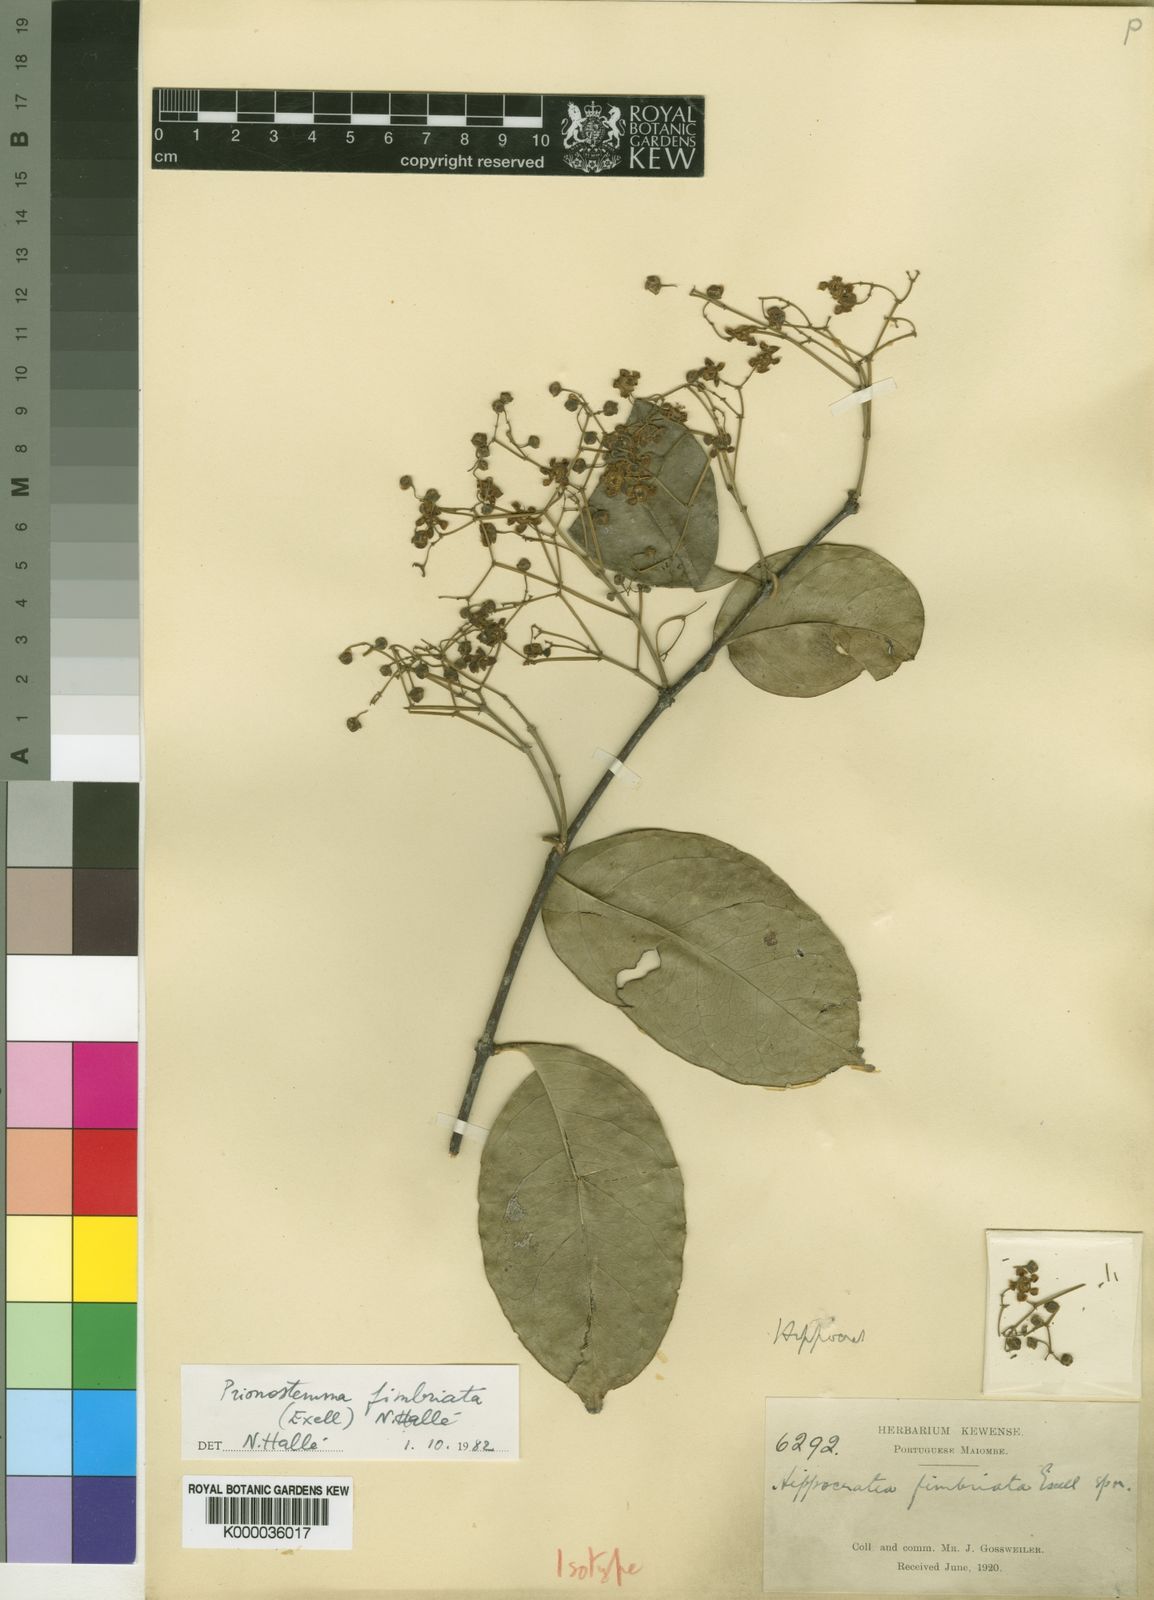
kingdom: Plantae
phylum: Tracheophyta
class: Magnoliopsida
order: Celastrales
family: Celastraceae
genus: Prionostemma
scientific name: Prionostemma
